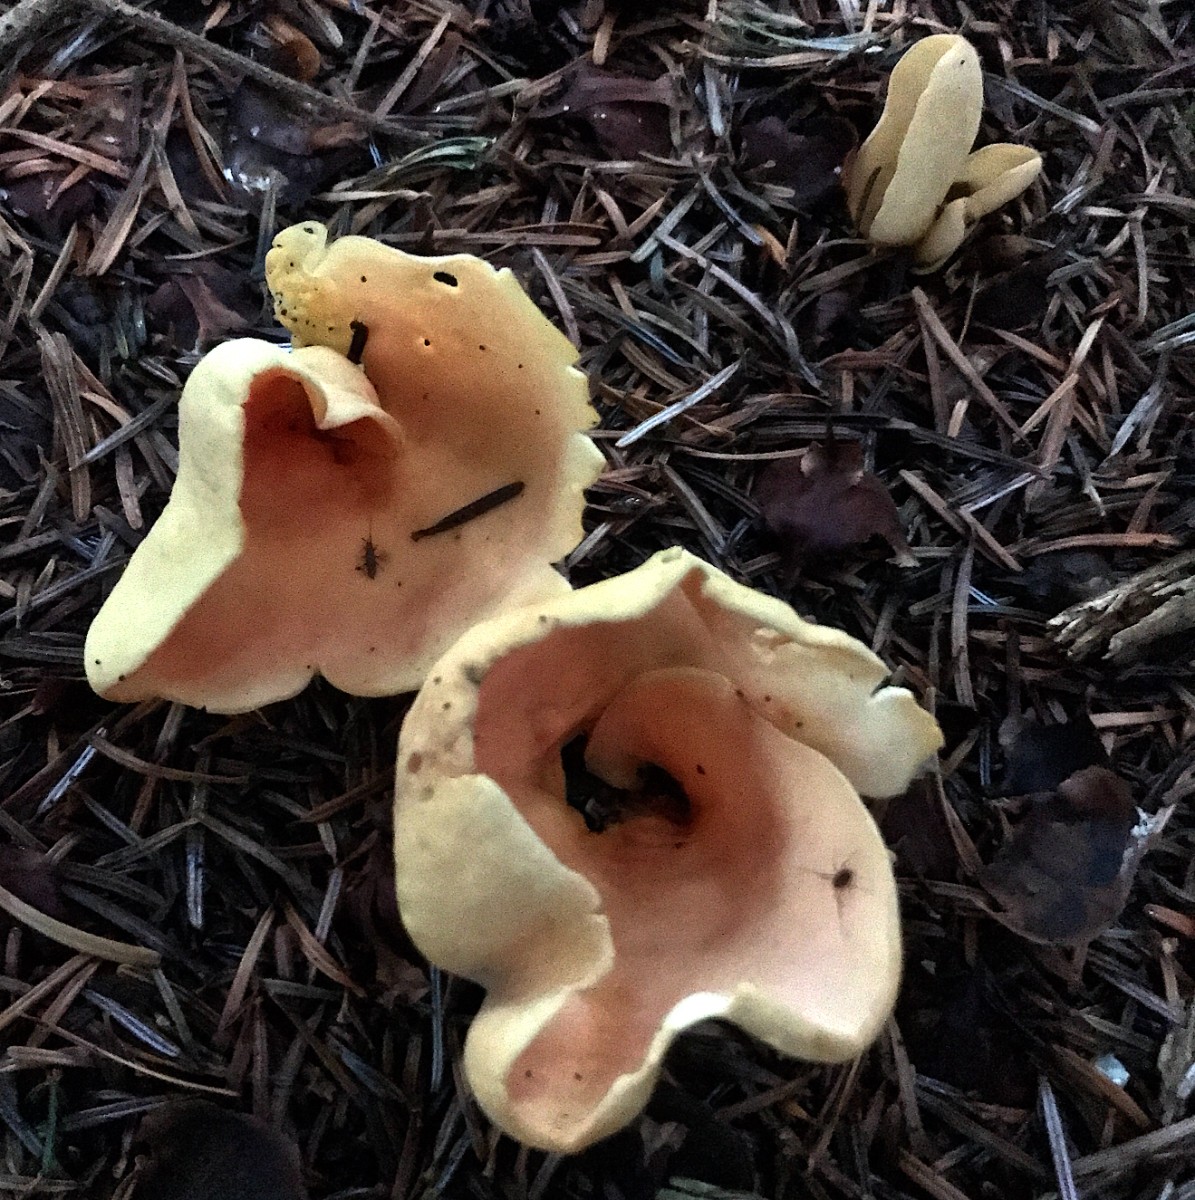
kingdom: Fungi
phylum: Ascomycota
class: Pezizomycetes
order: Pezizales
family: Otideaceae
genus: Otidea
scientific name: Otidea onotica
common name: æsel-ørebæger
